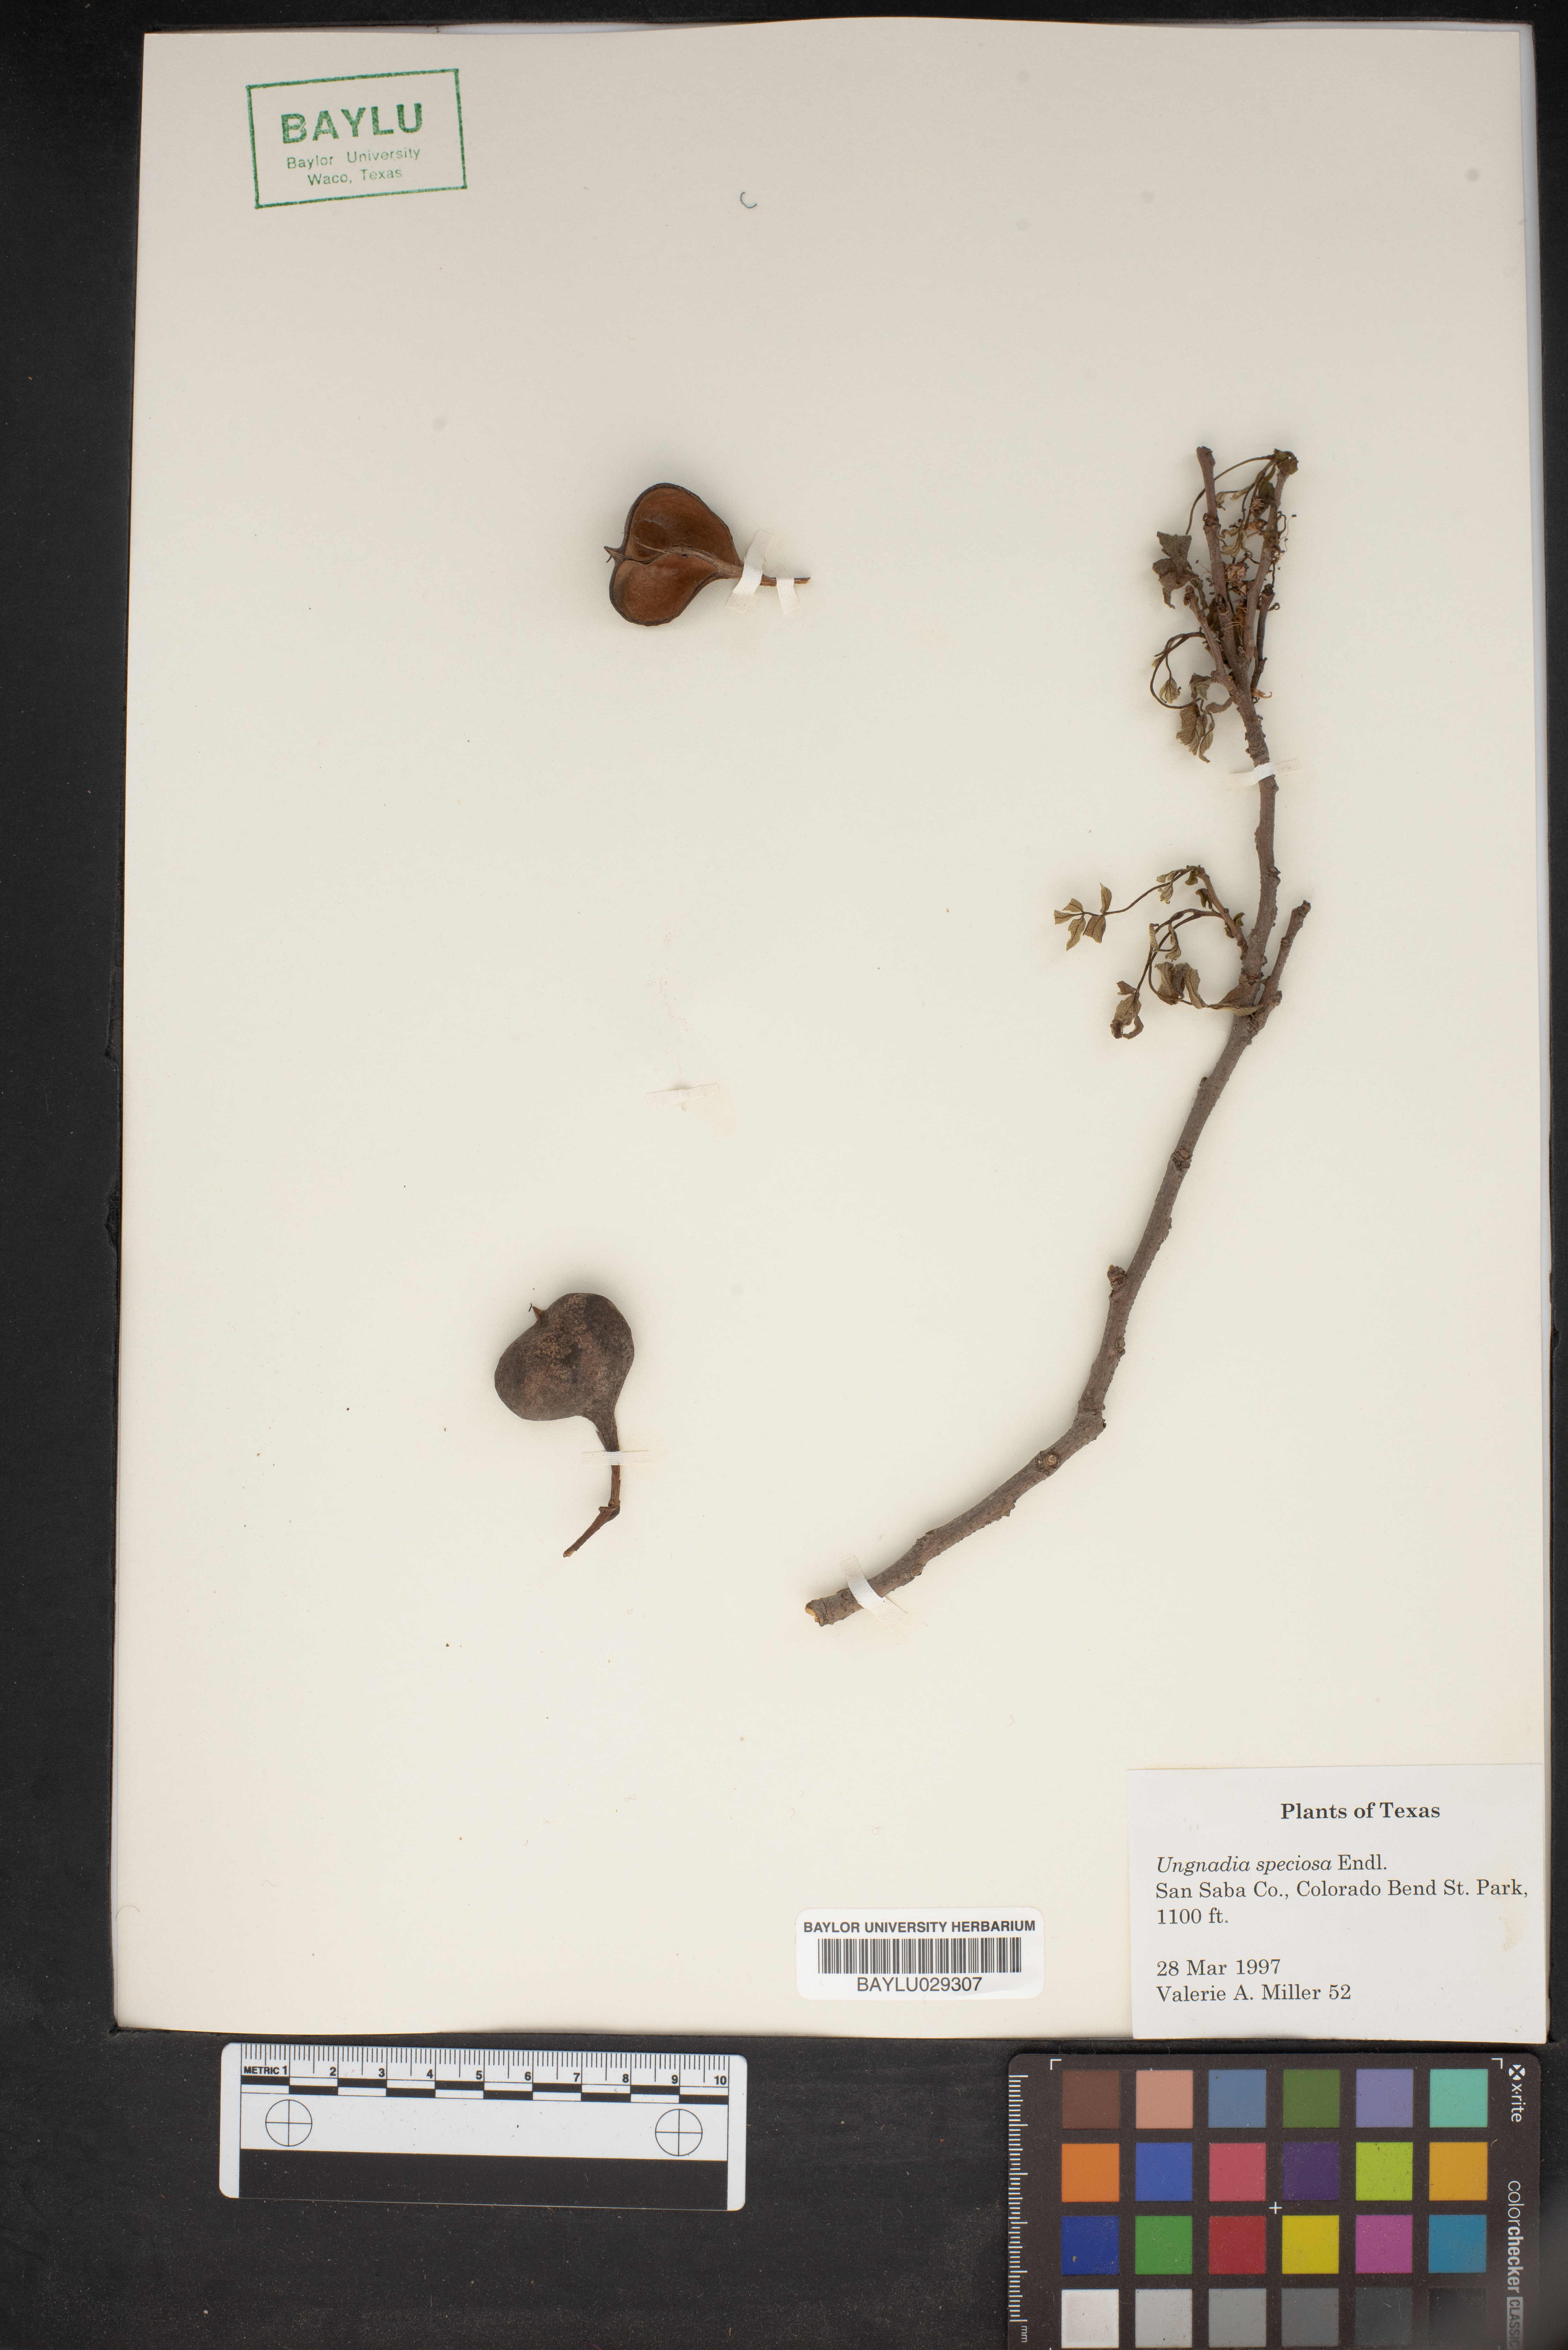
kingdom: Plantae
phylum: Tracheophyta
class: Magnoliopsida
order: Sapindales
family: Sapindaceae
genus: Ungnadia
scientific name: Ungnadia speciosa
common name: Texas-buckeye
